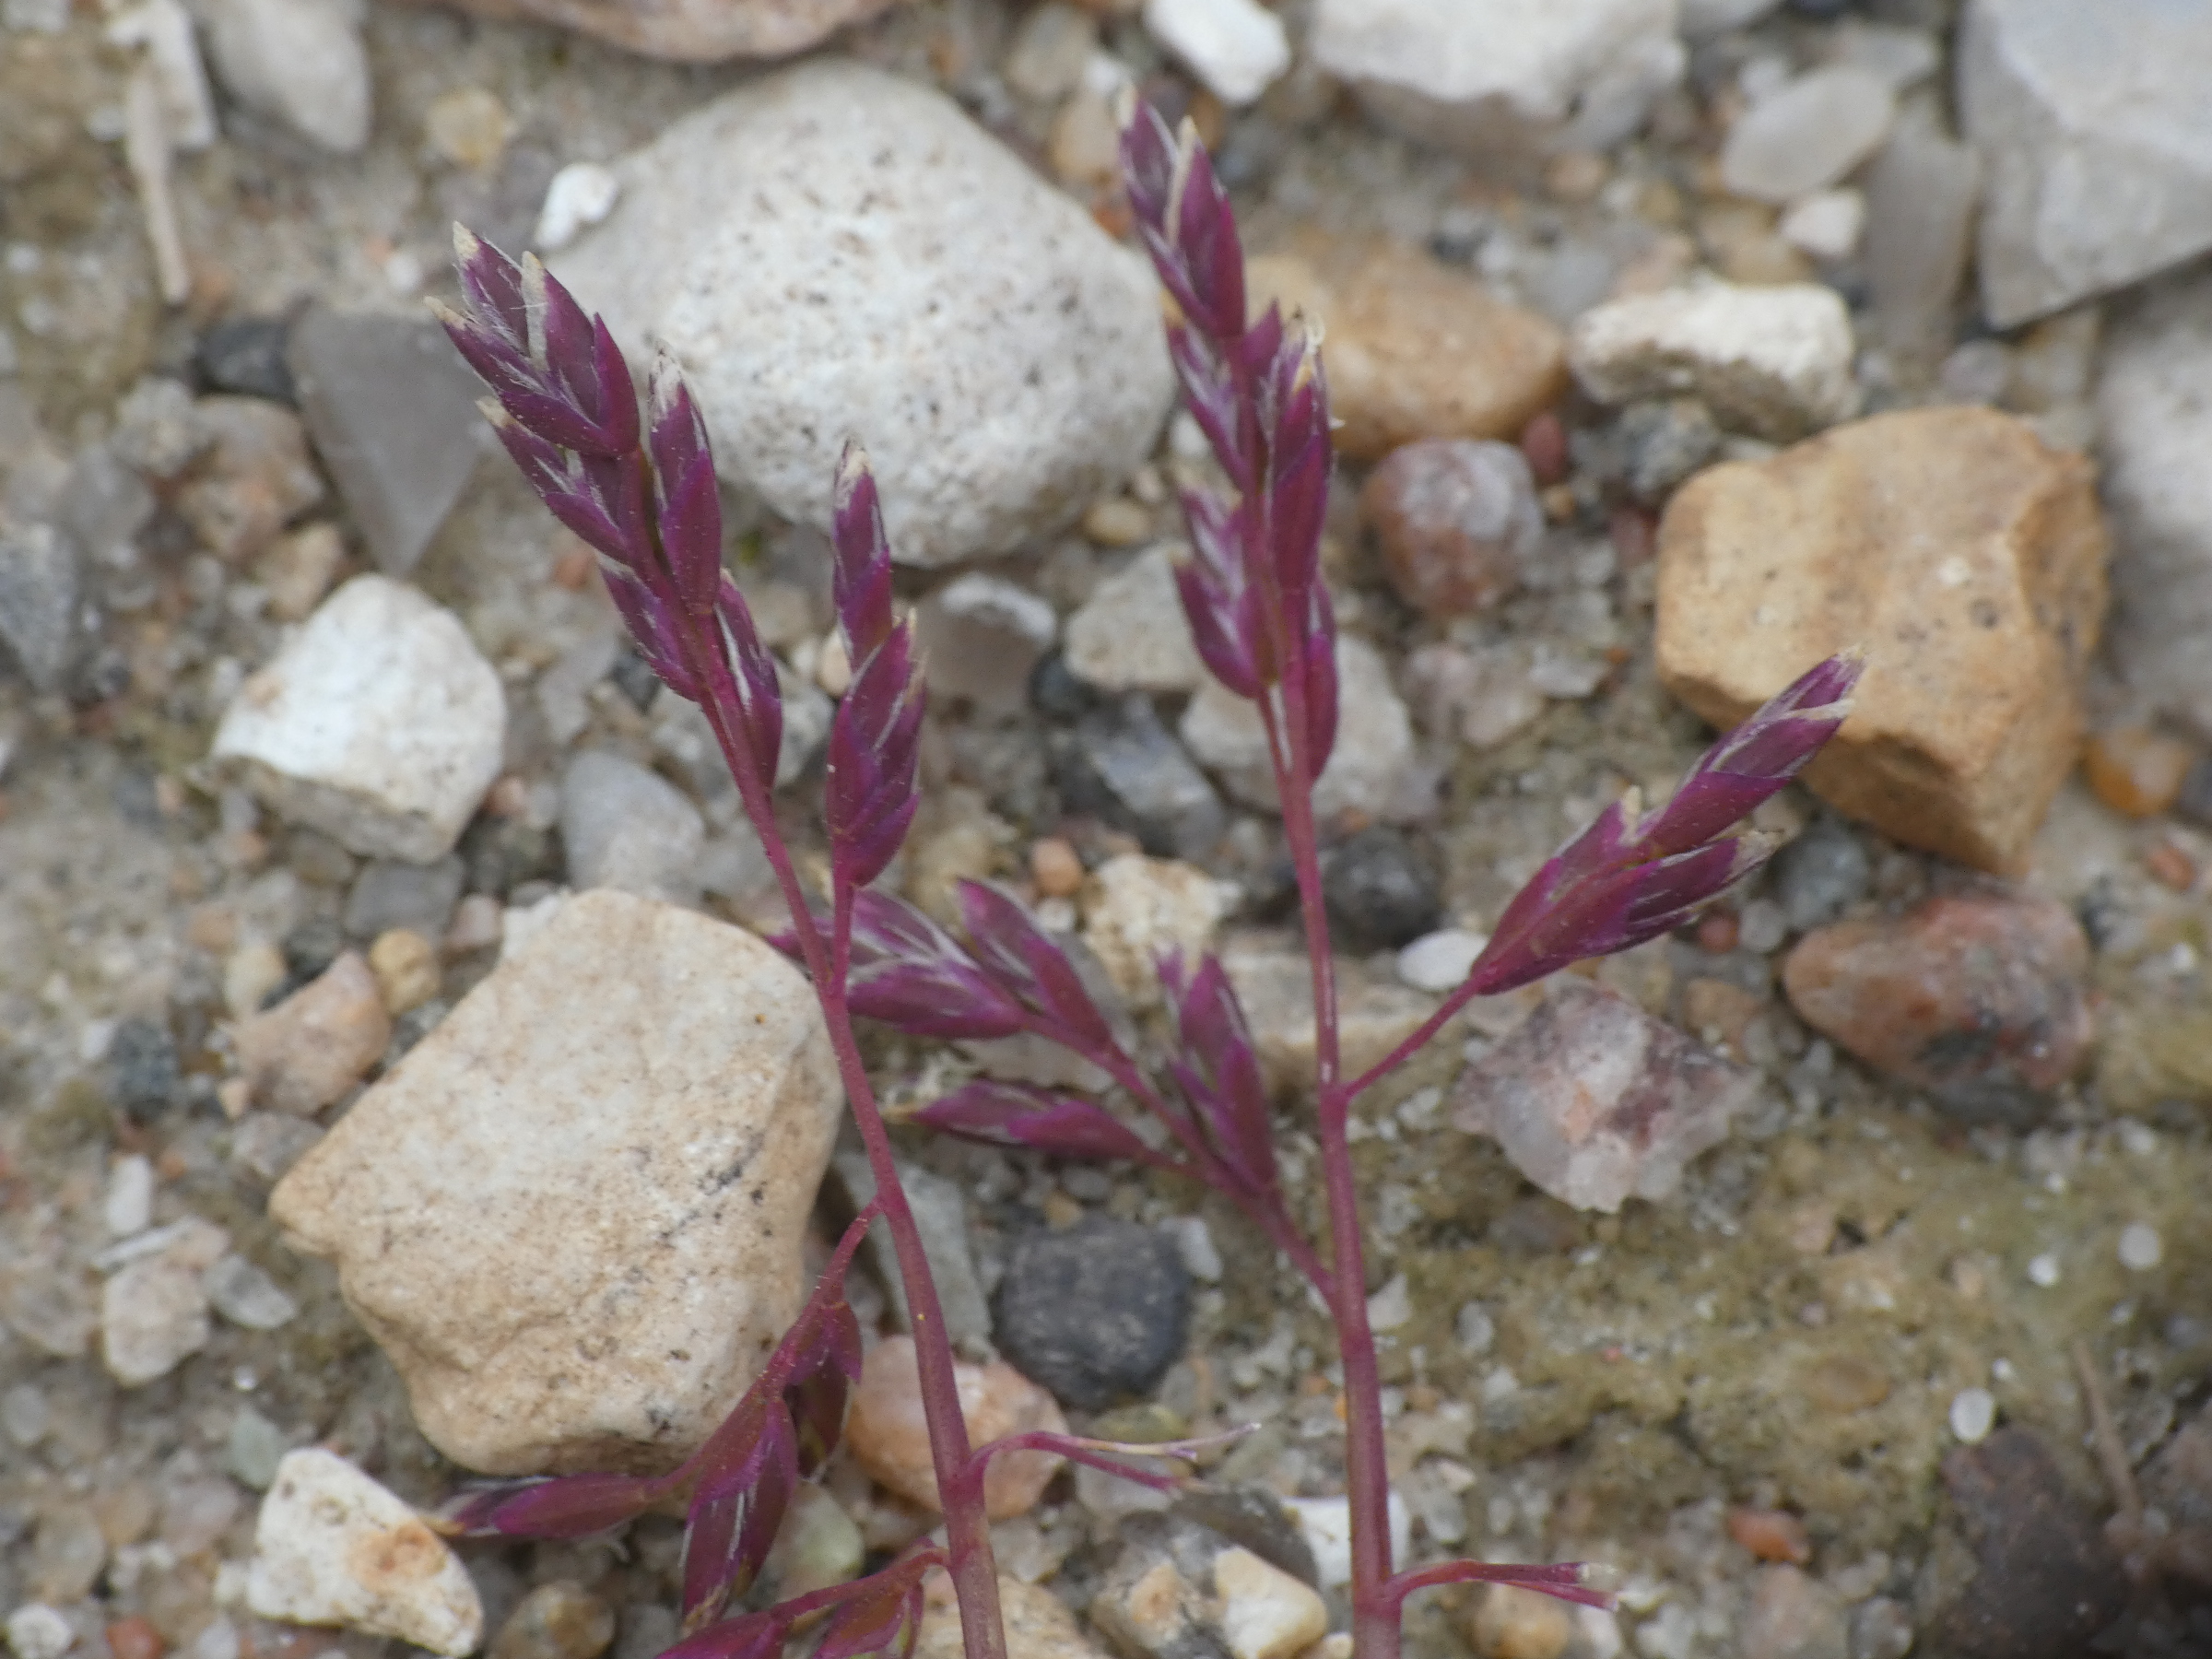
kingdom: Plantae
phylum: Tracheophyta
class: Liliopsida
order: Poales
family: Poaceae
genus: Poa
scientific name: Poa annua
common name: Enårig rapgræs
